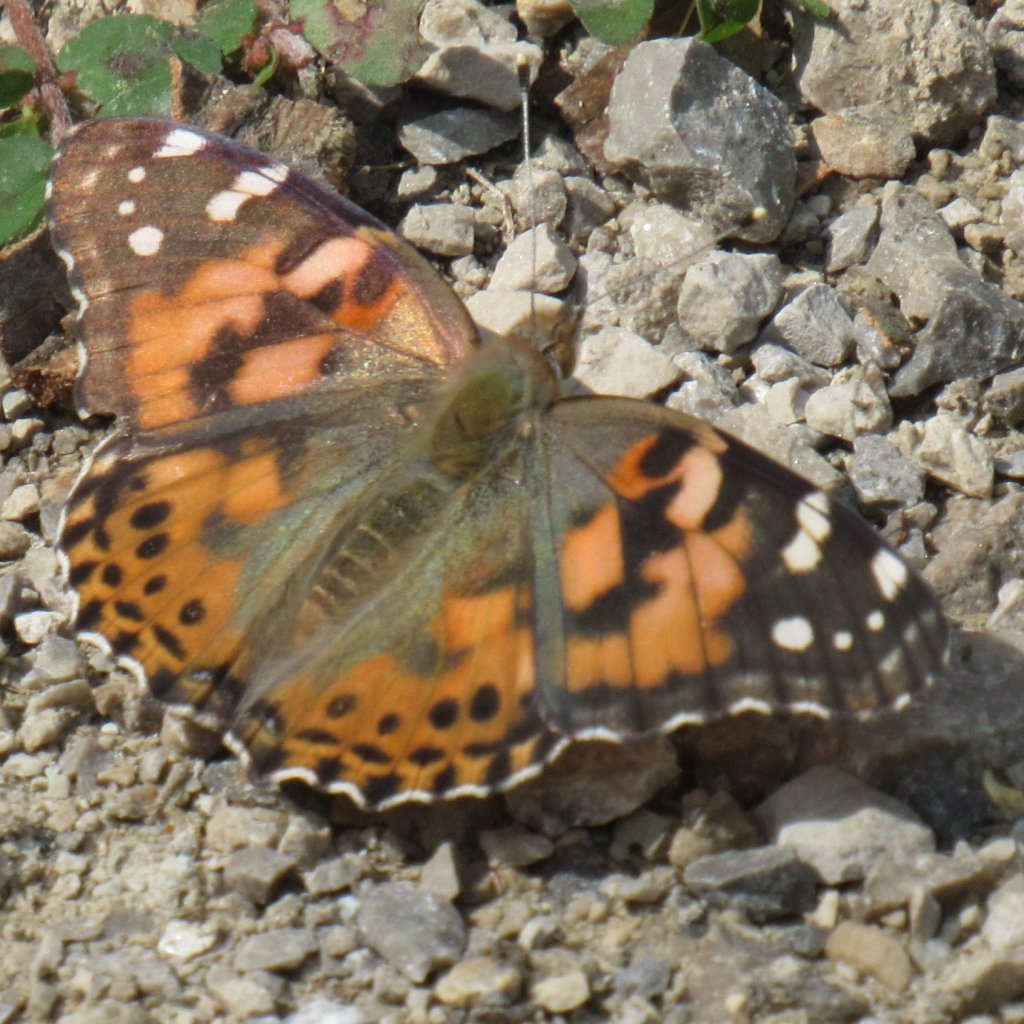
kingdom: Animalia
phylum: Arthropoda
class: Insecta
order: Lepidoptera
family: Nymphalidae
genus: Vanessa
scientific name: Vanessa cardui
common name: Painted Lady
